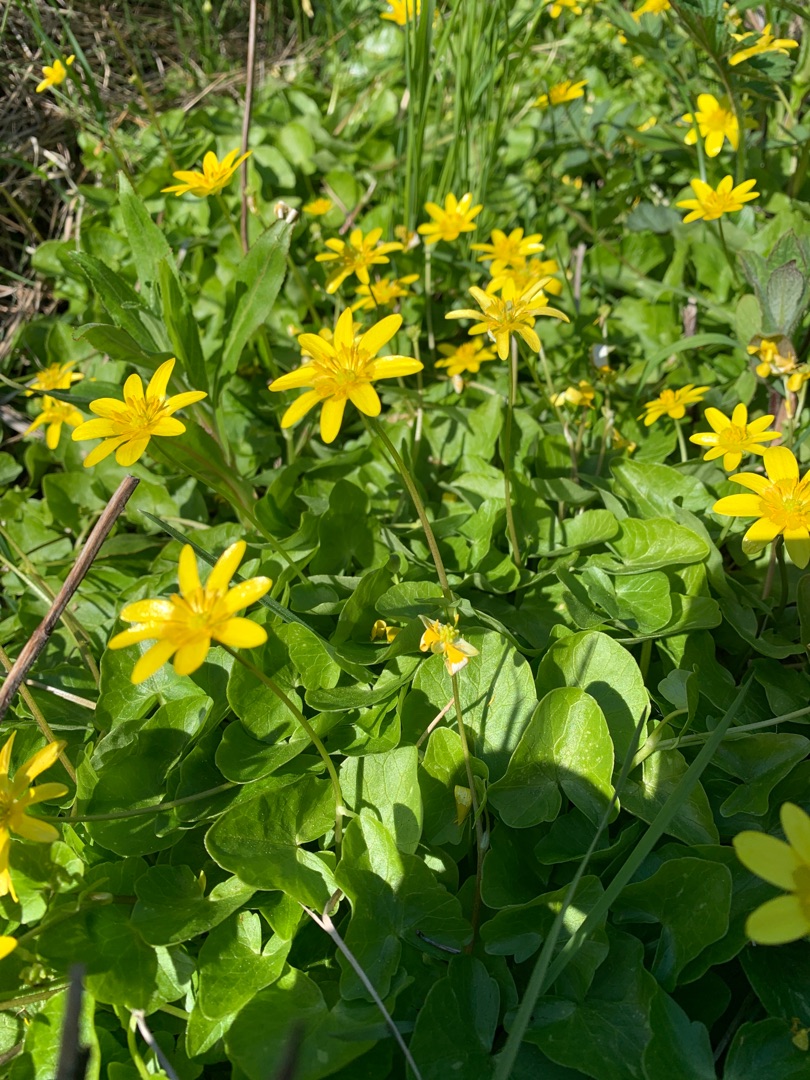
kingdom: Plantae
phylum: Tracheophyta
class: Magnoliopsida
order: Ranunculales
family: Ranunculaceae
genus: Ficaria
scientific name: Ficaria verna
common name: Vorterod
